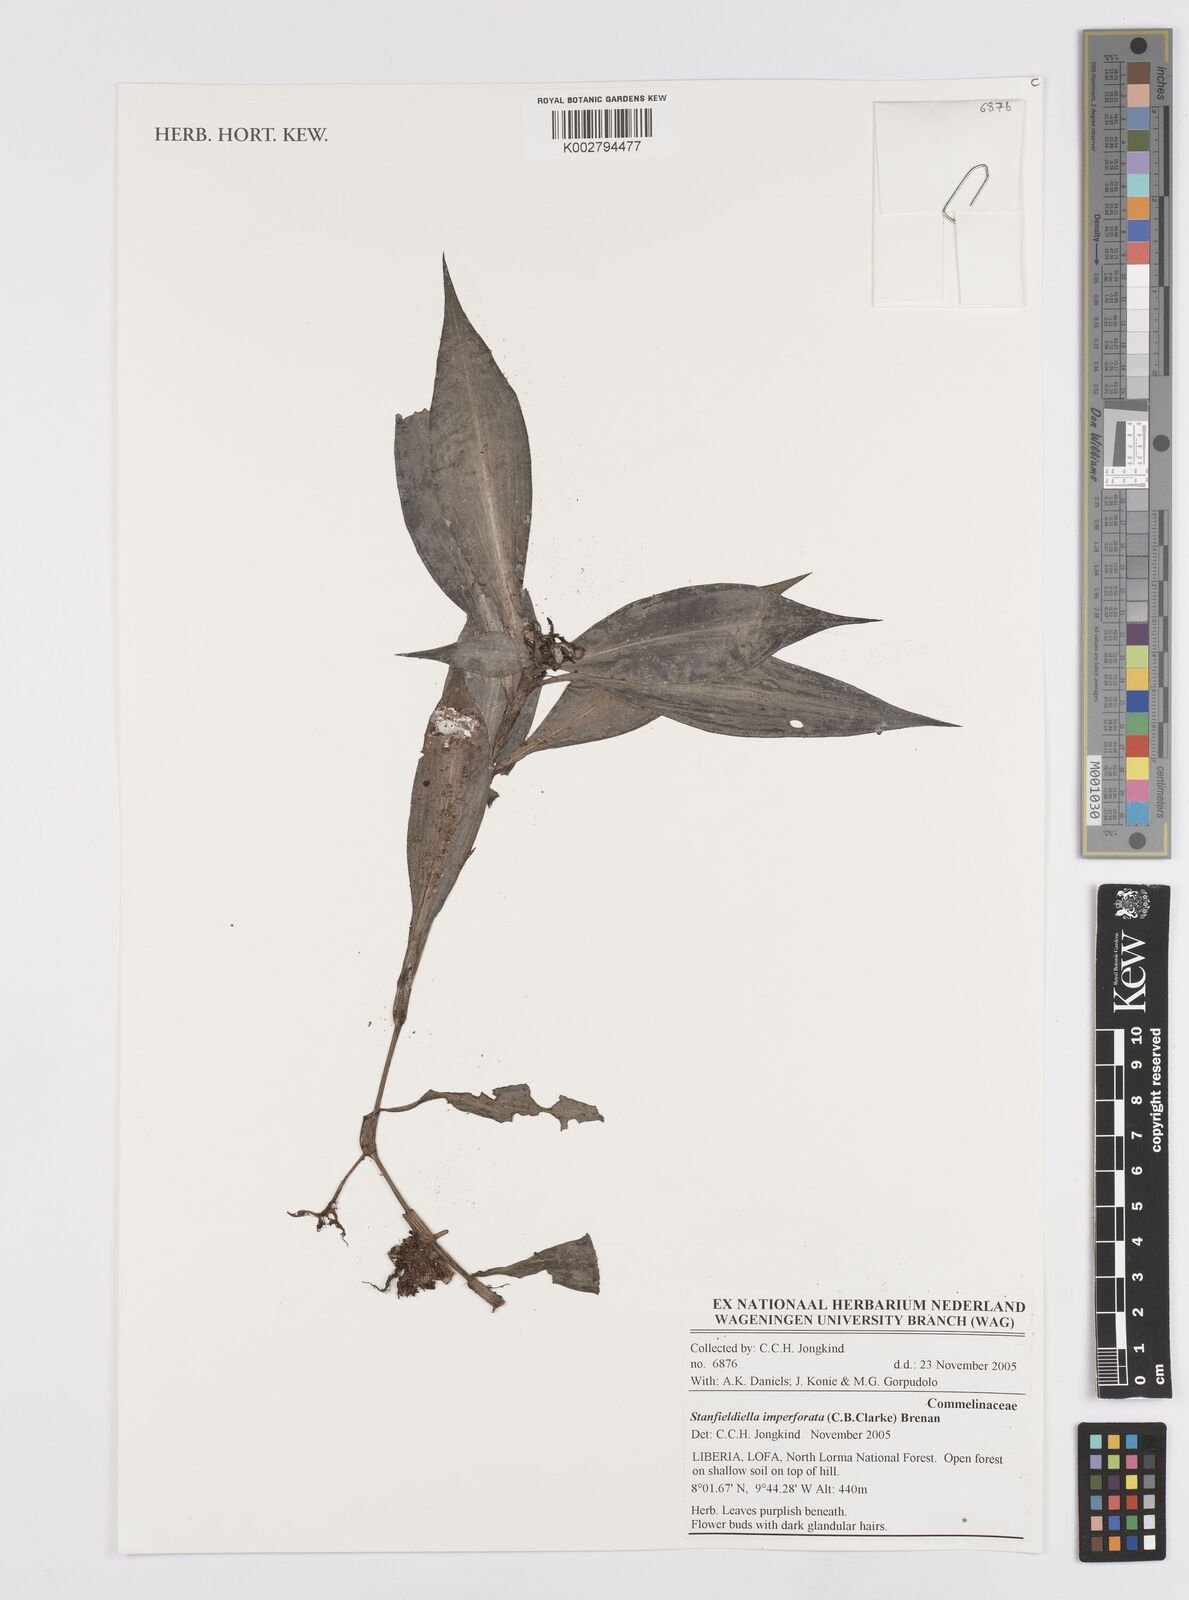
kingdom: Plantae
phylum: Tracheophyta
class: Liliopsida
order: Commelinales
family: Commelinaceae
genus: Stanfieldiella
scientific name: Stanfieldiella imperforata
